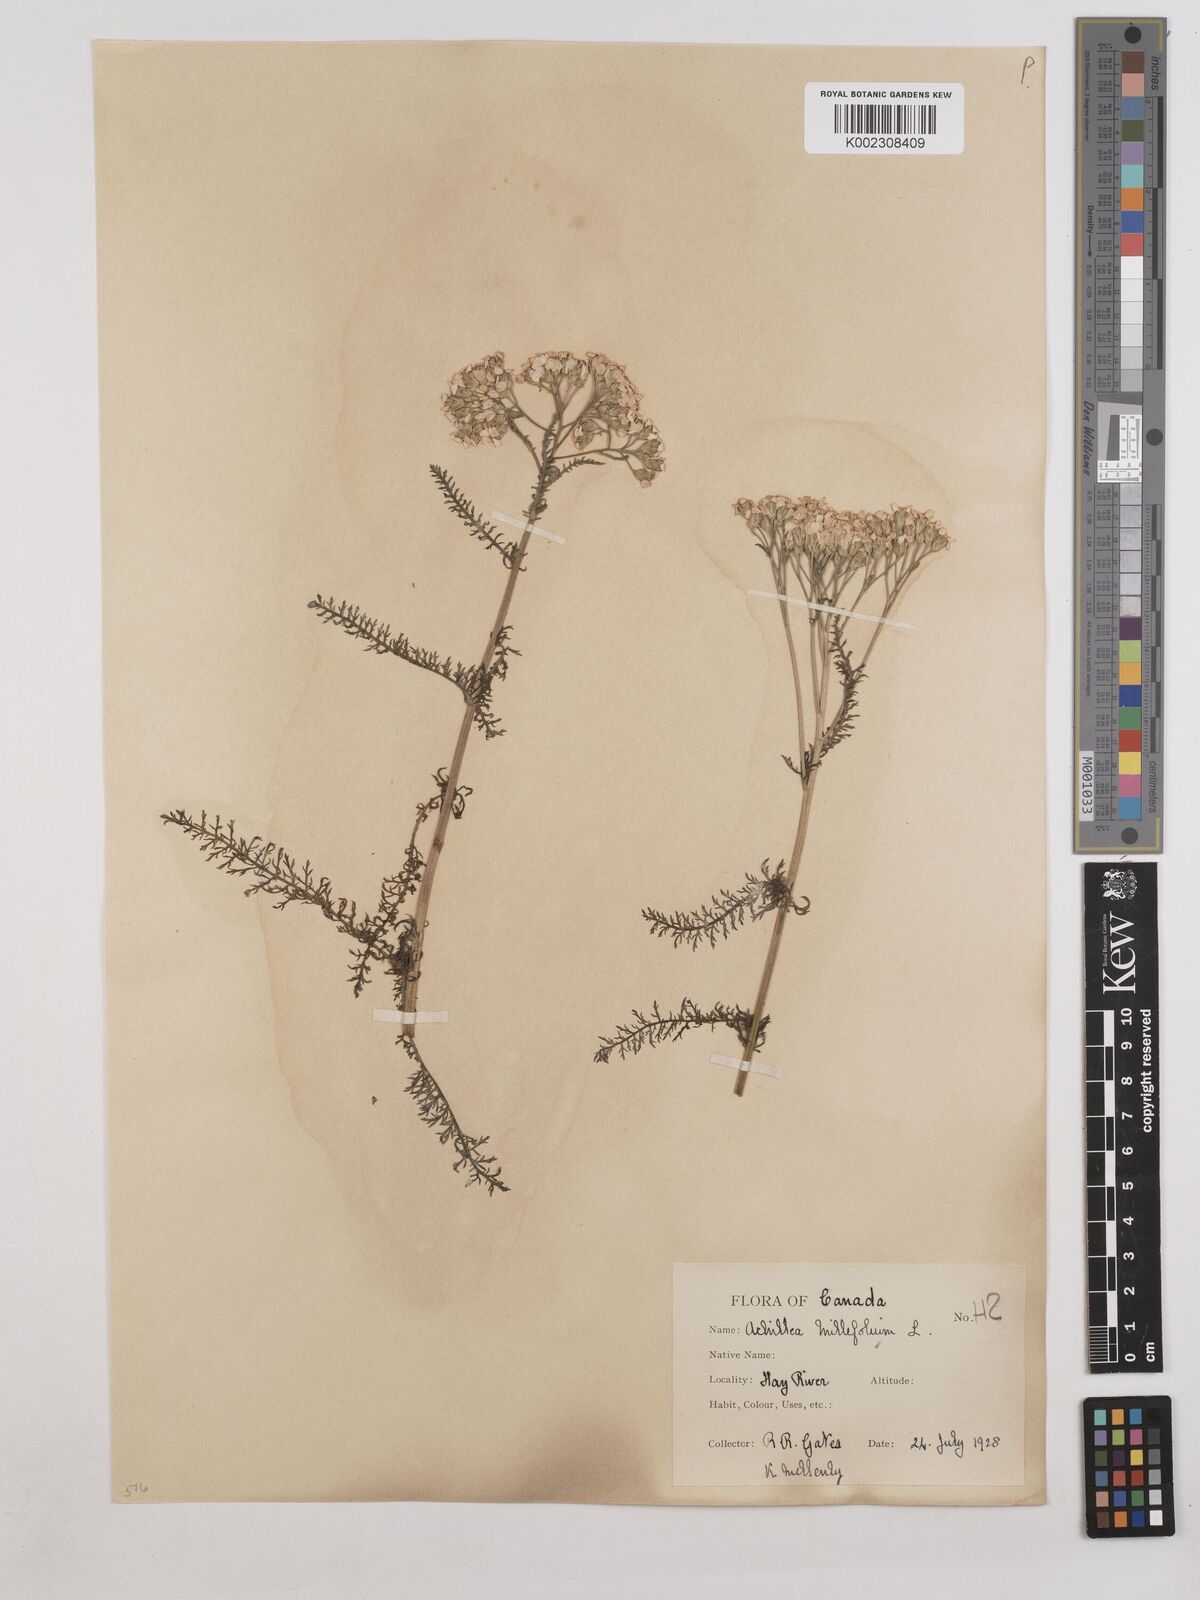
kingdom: Plantae
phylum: Tracheophyta
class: Magnoliopsida
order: Asterales
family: Asteraceae
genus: Achillea
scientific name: Achillea millefolium
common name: Yarrow
